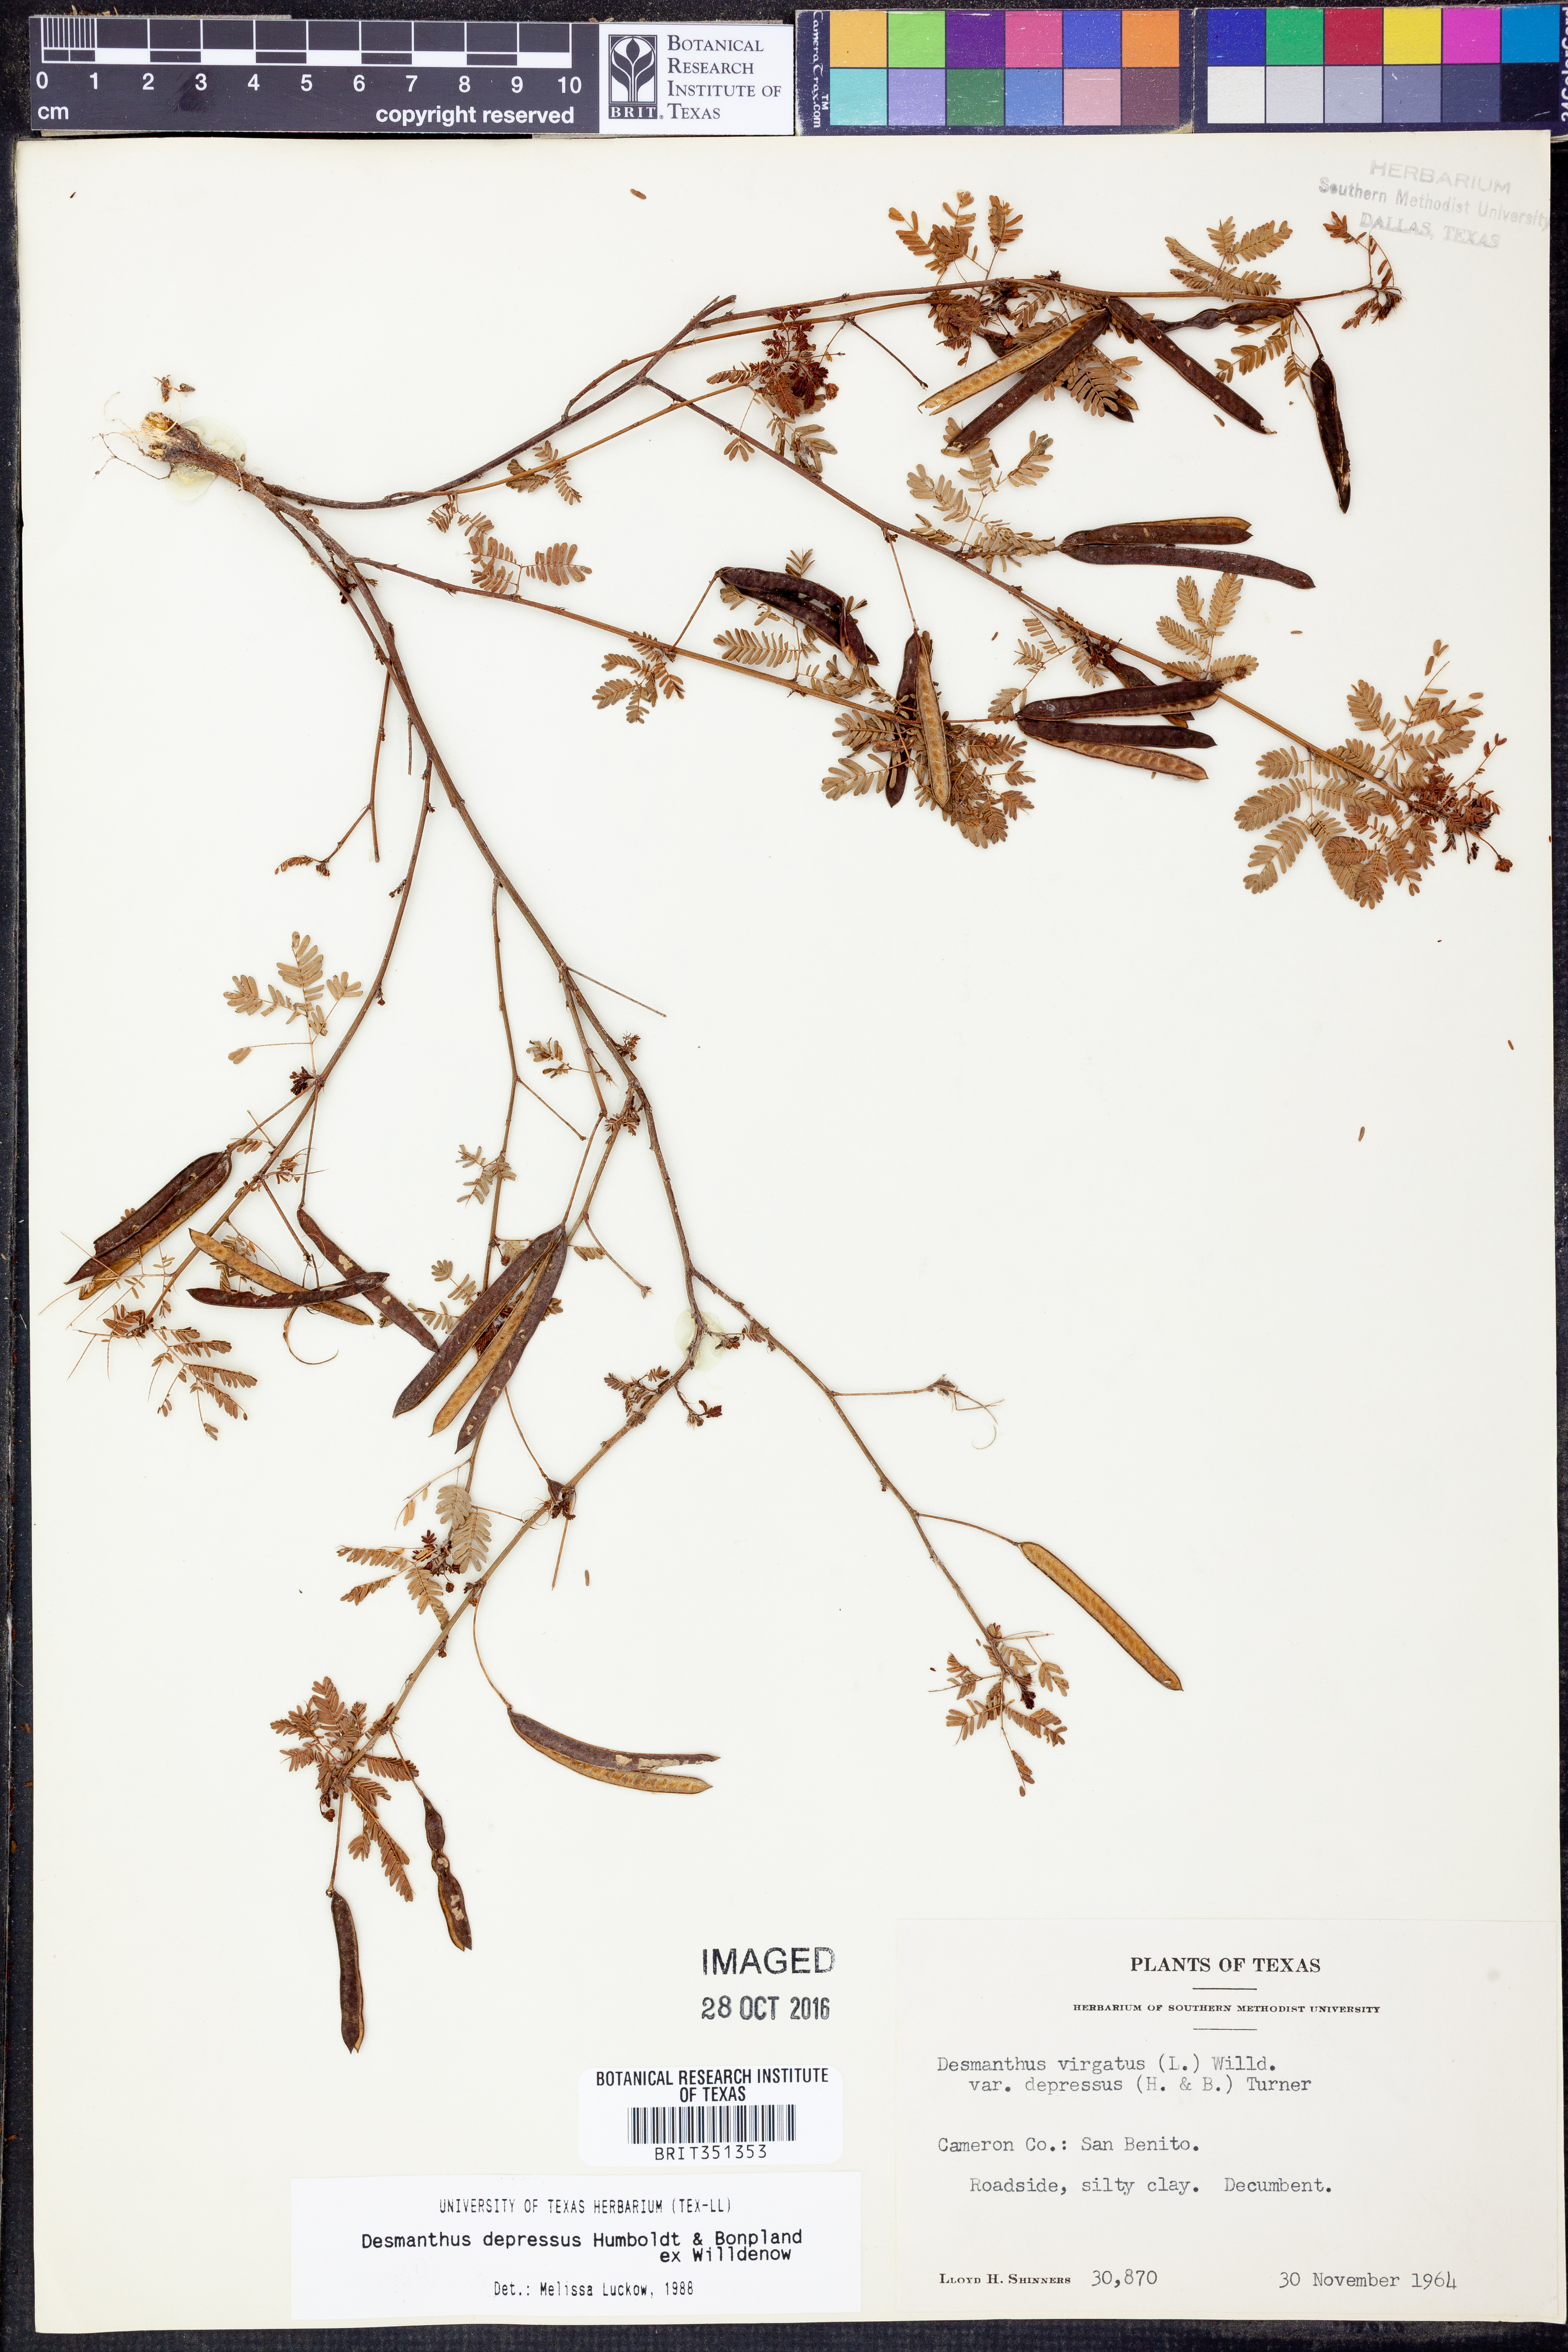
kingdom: Plantae
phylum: Tracheophyta
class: Magnoliopsida
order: Fabales
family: Fabaceae
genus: Desmanthus
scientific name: Desmanthus virgatus
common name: Wild tantan
